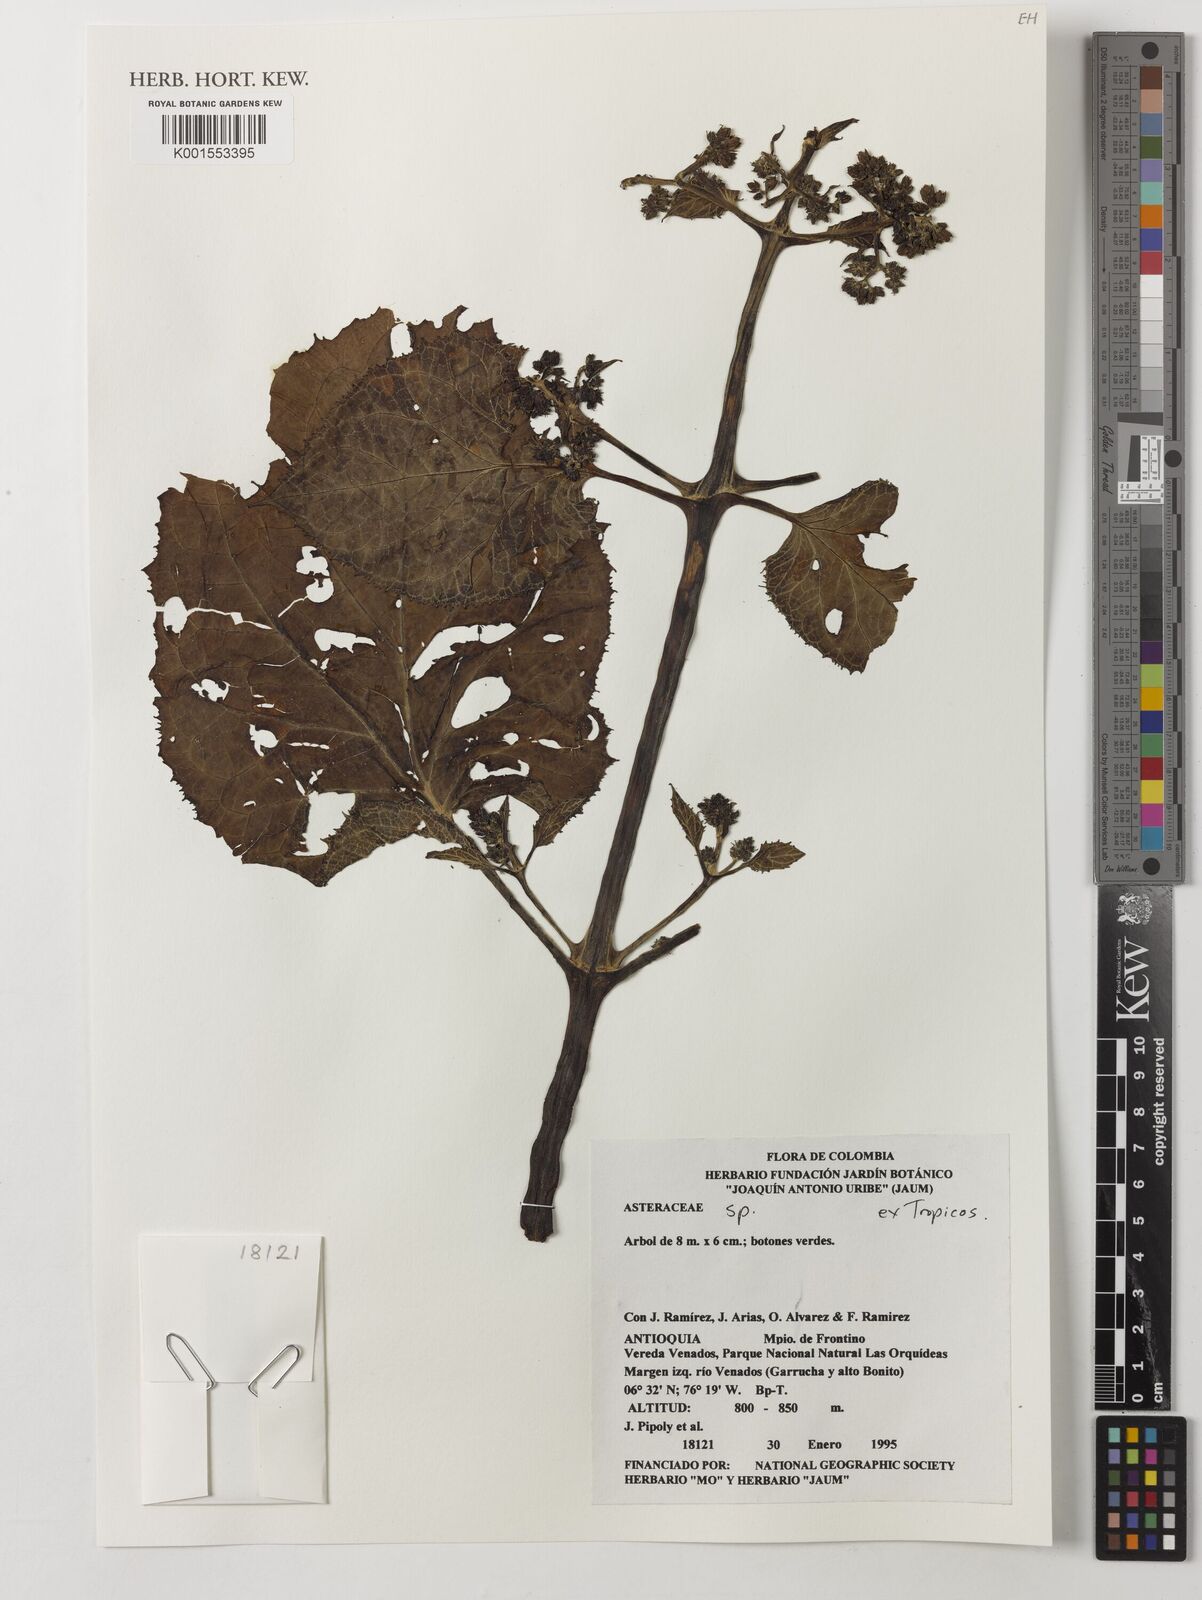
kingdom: Plantae
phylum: Tracheophyta
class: Magnoliopsida
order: Asterales
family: Asteraceae
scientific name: Asteraceae
